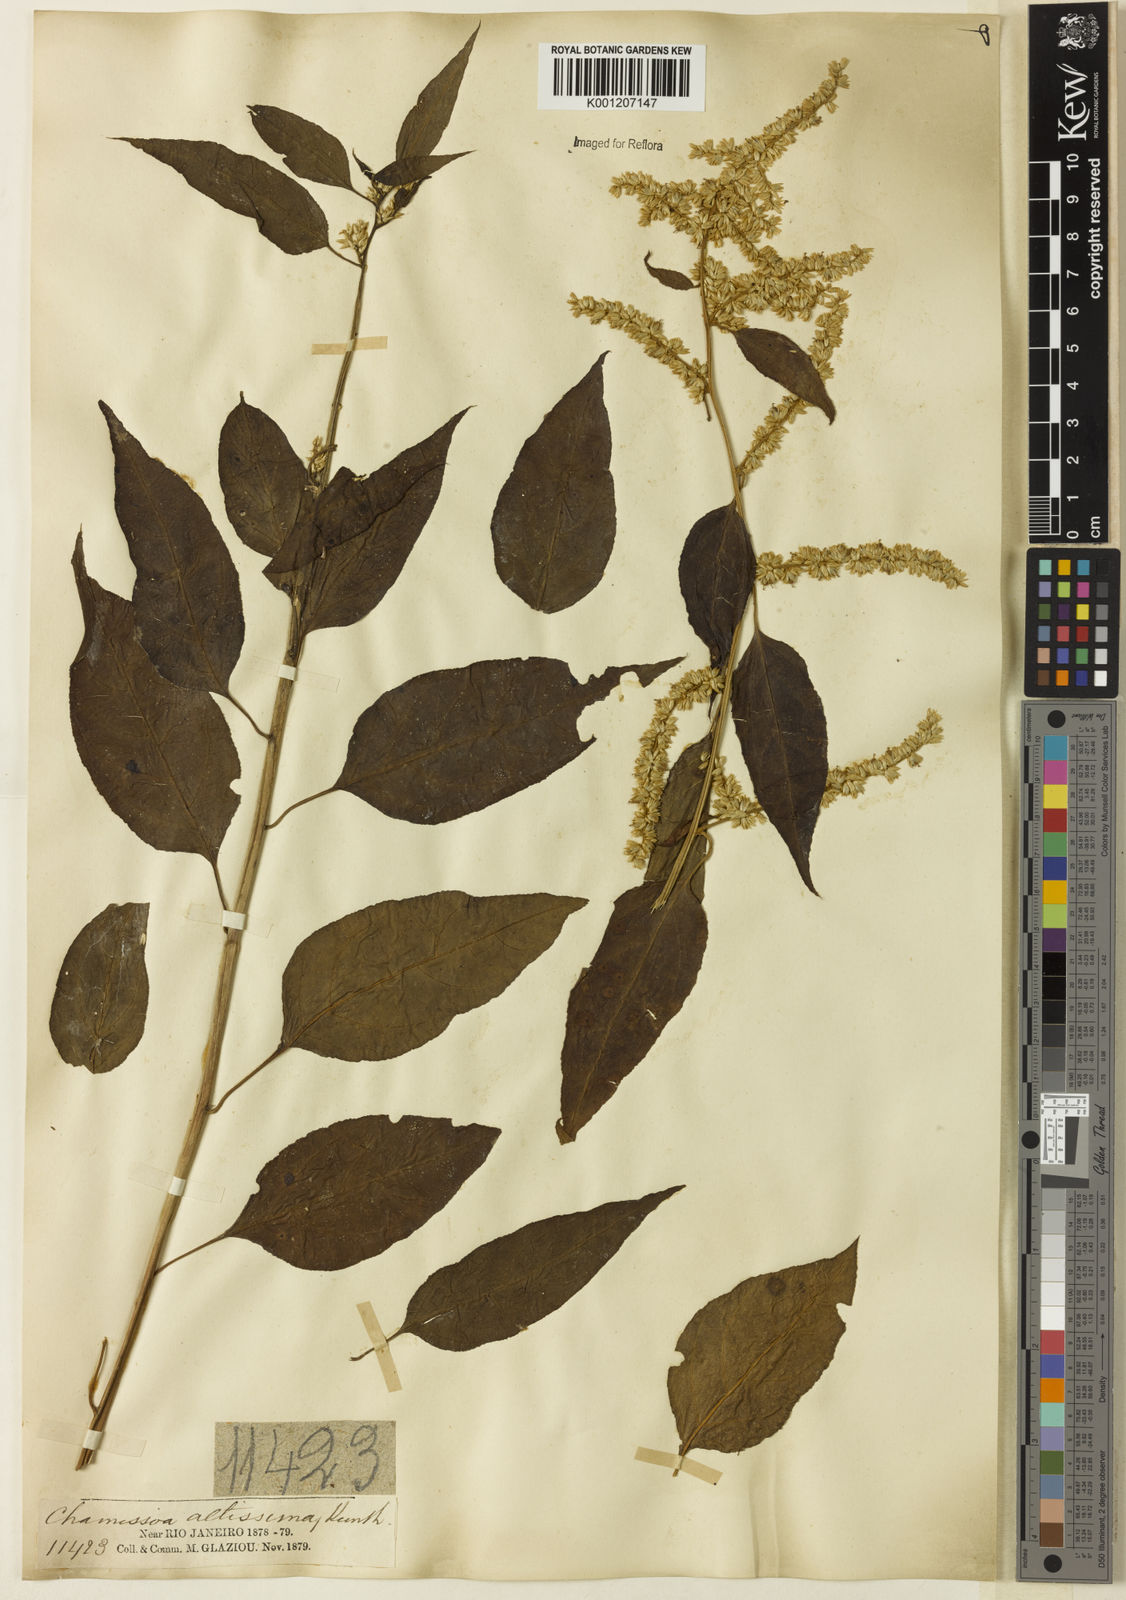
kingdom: Plantae
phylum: Tracheophyta
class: Magnoliopsida
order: Caryophyllales
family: Amaranthaceae
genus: Chamissoa
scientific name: Chamissoa altissima
